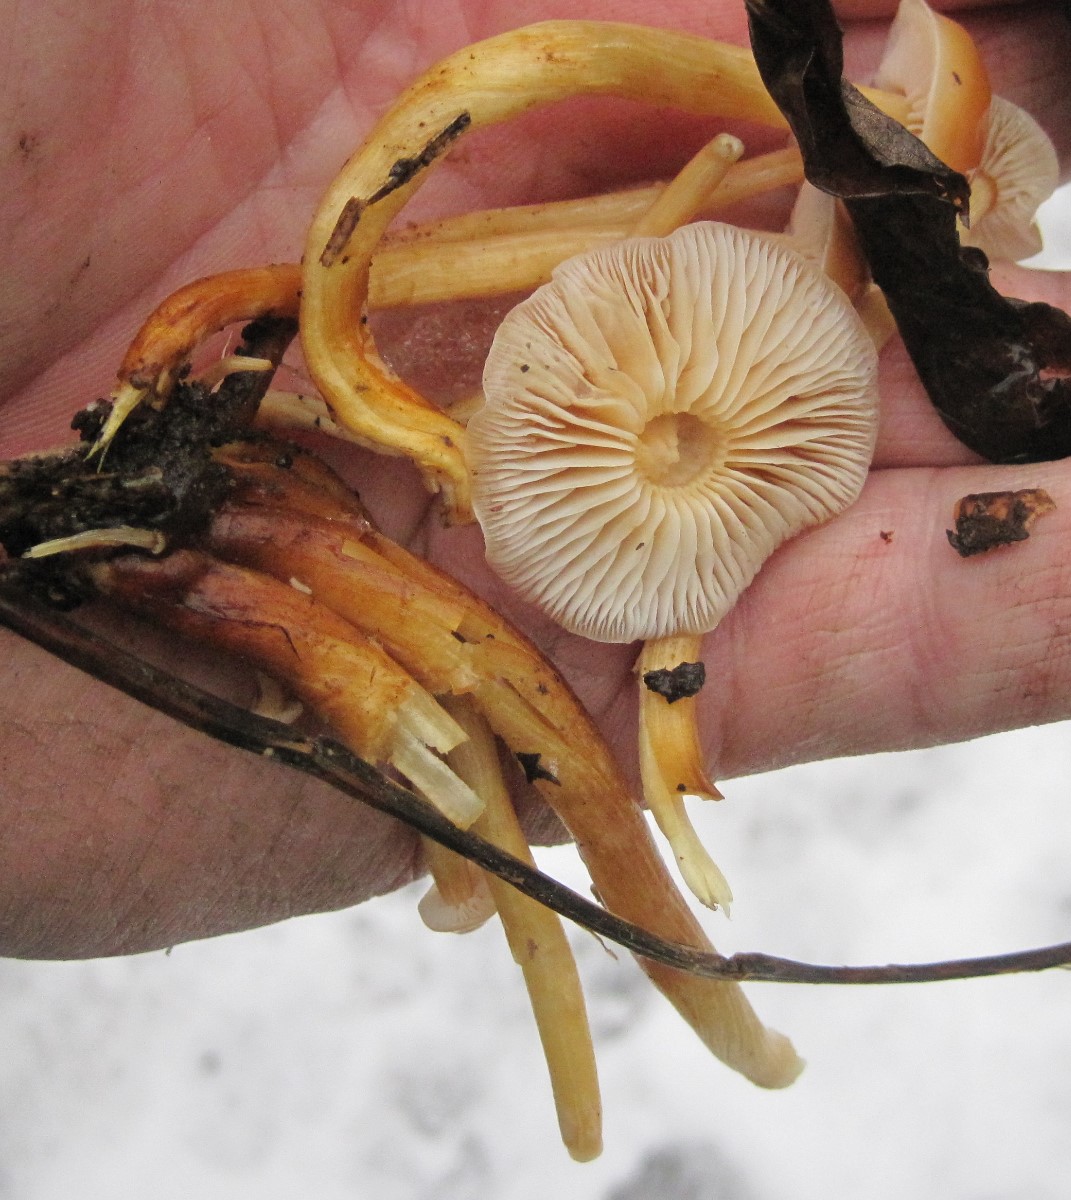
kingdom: Fungi
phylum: Basidiomycota
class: Agaricomycetes
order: Agaricales
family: Physalacriaceae
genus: Flammulina
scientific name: Flammulina velutipes
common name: gul fløjlsfod
